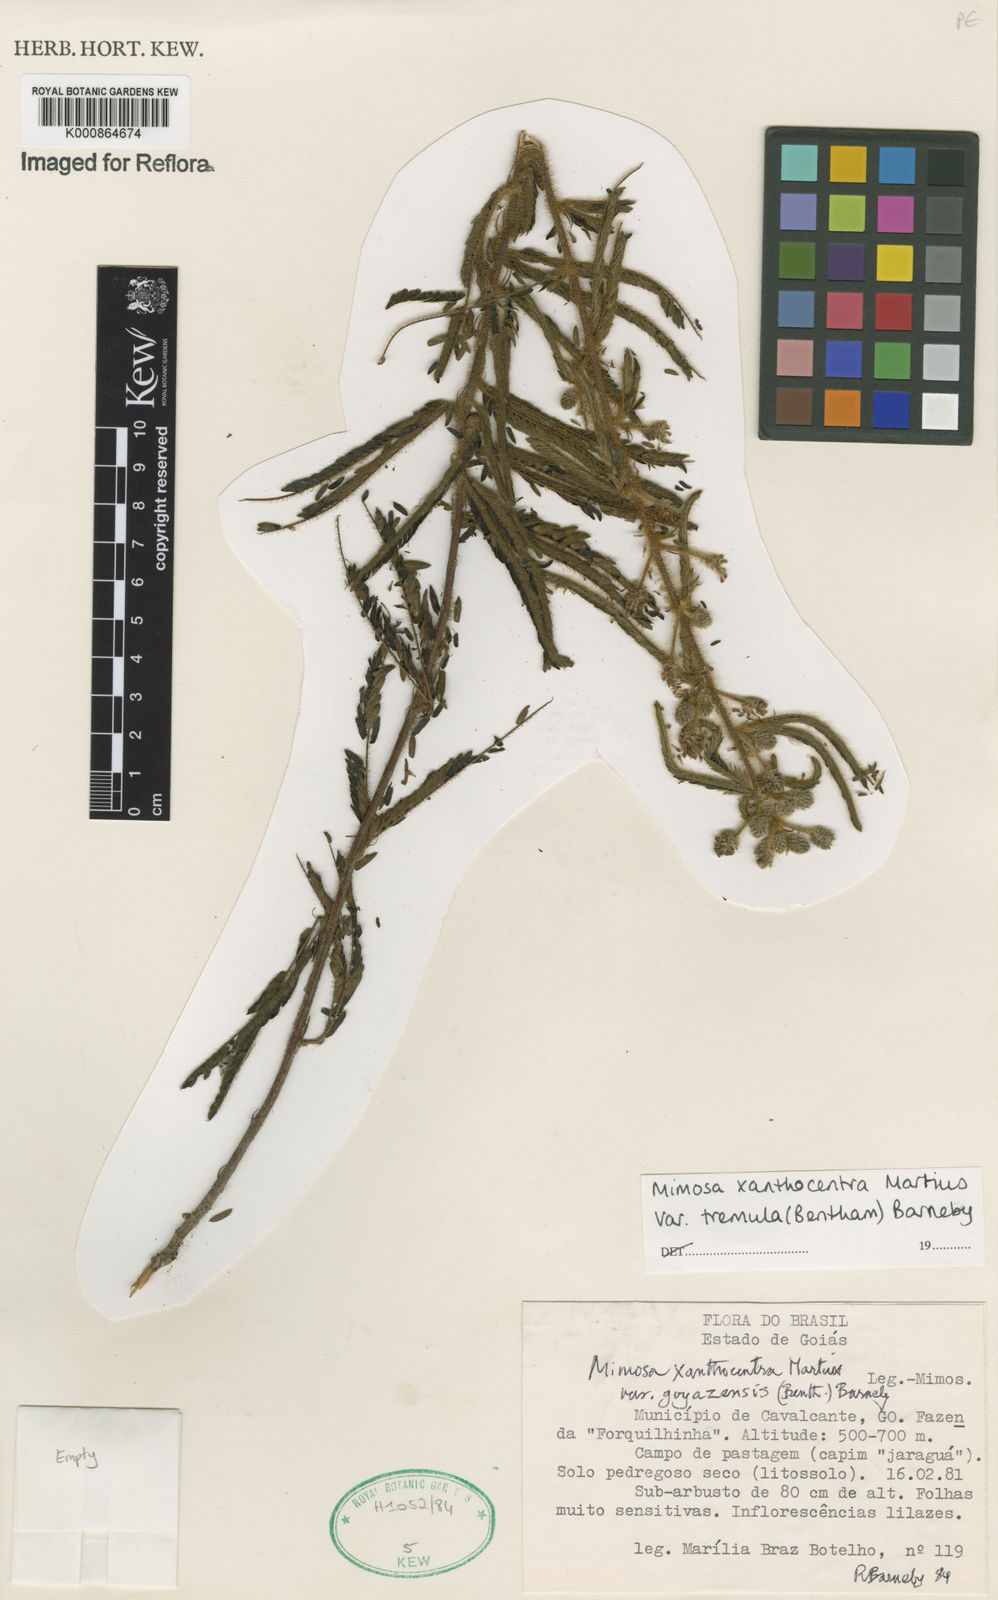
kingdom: Plantae
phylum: Tracheophyta
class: Magnoliopsida
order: Fabales
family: Fabaceae
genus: Mimosa
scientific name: Mimosa xanthocentra
